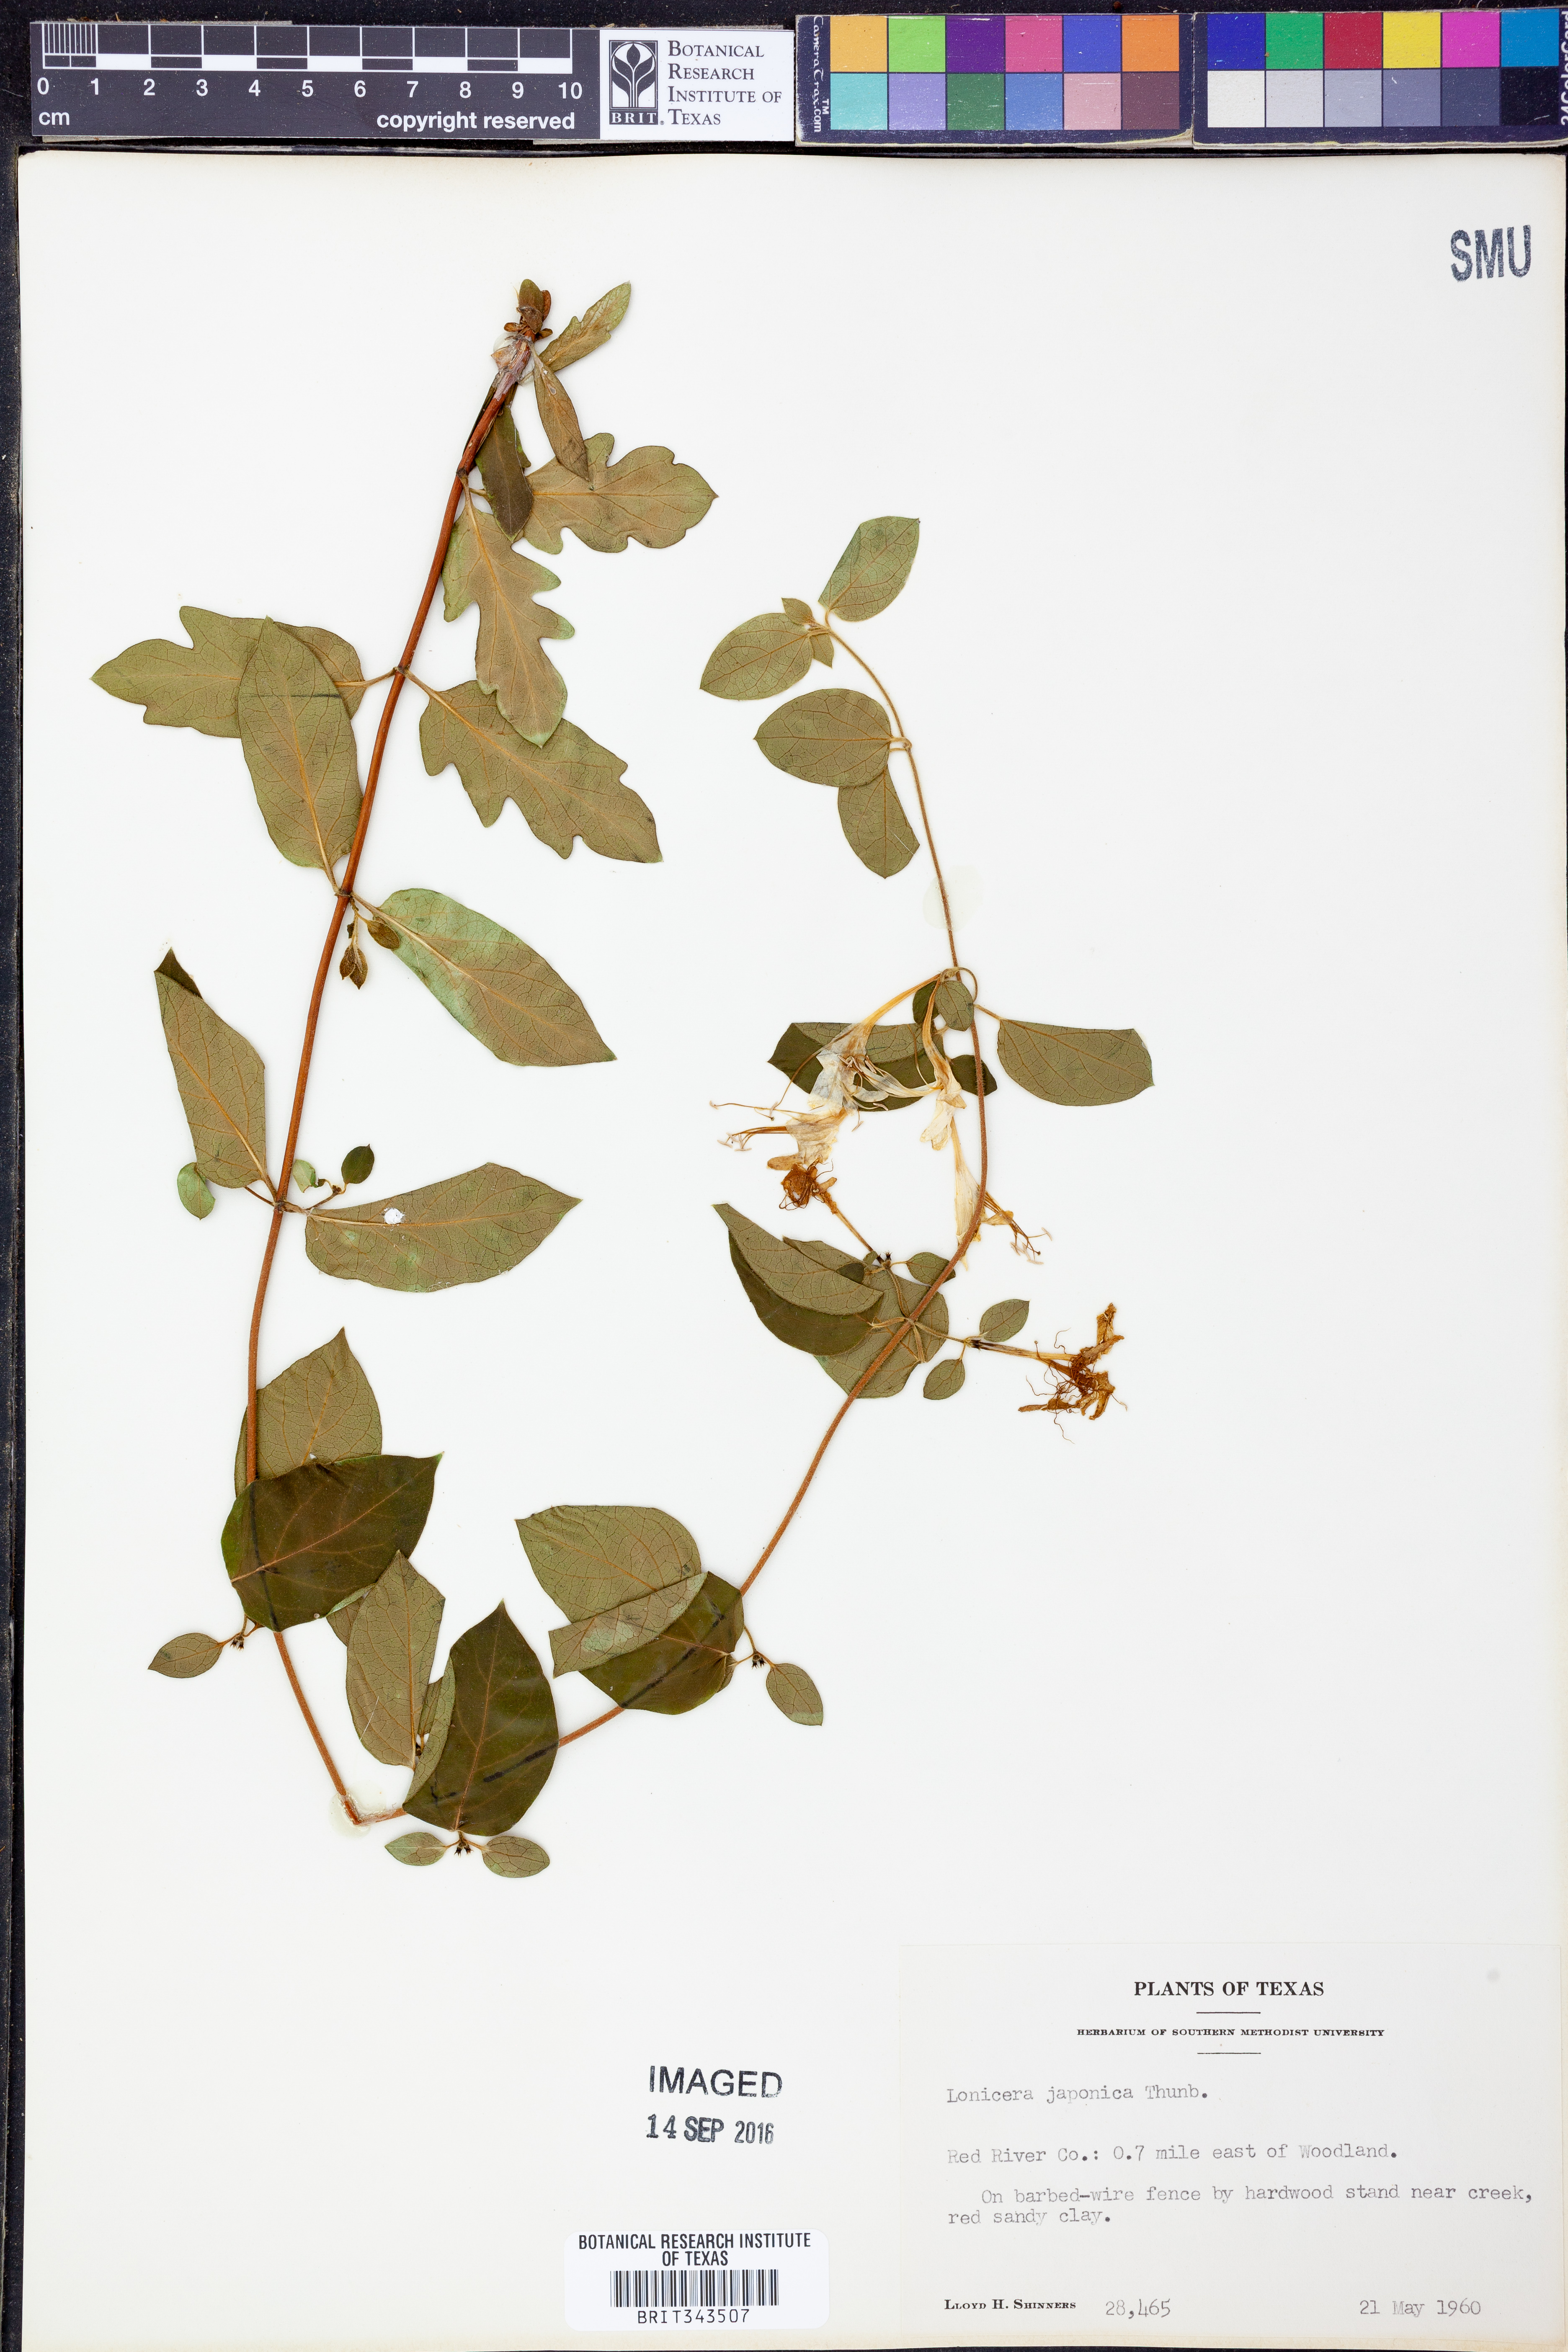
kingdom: Plantae
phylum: Tracheophyta
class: Magnoliopsida
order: Dipsacales
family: Caprifoliaceae
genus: Lonicera
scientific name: Lonicera japonica
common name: Japanese honeysuckle
